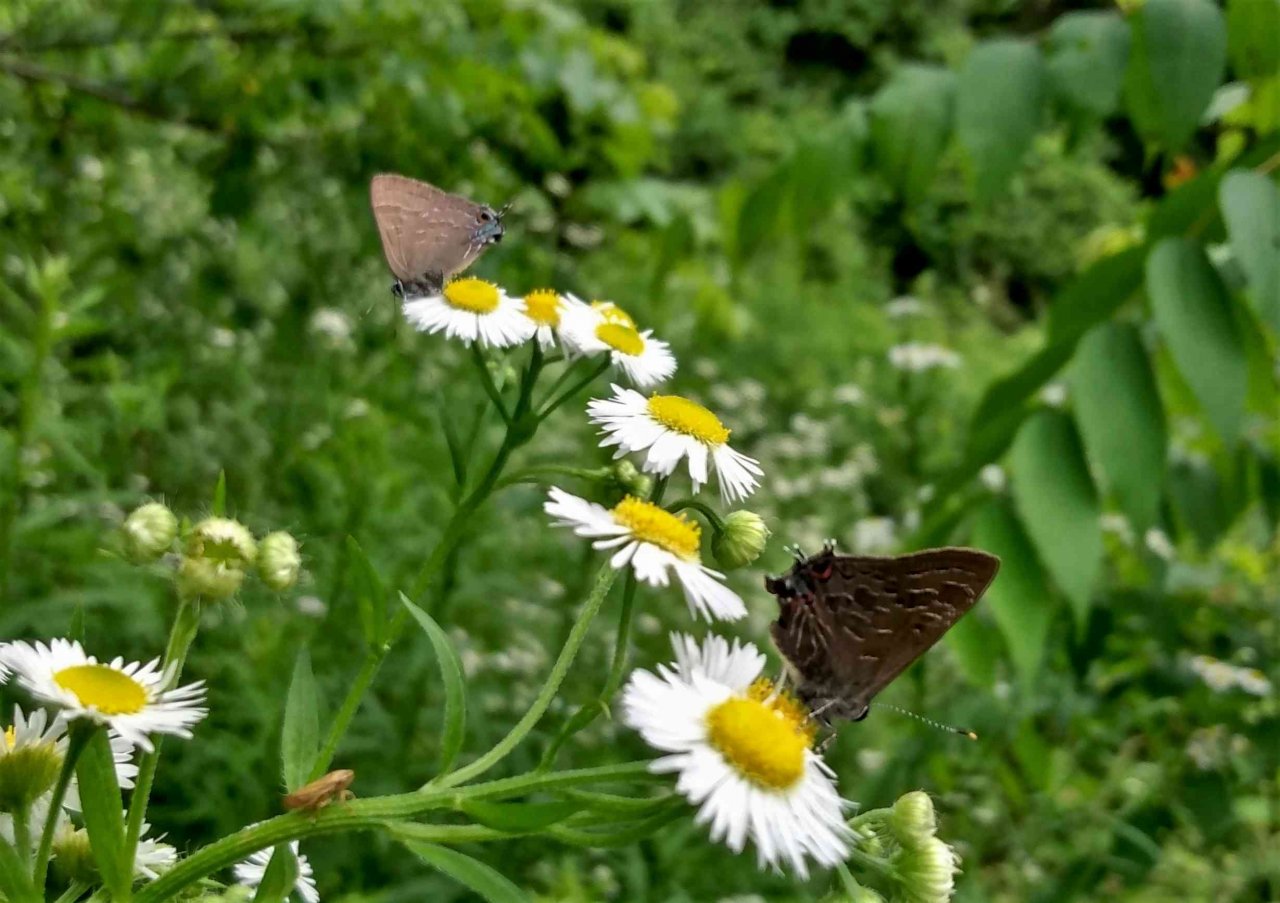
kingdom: Animalia
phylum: Arthropoda
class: Insecta
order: Lepidoptera
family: Lycaenidae
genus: Strymon
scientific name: Strymon caryaevorus
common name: Hickory Hairstreak
